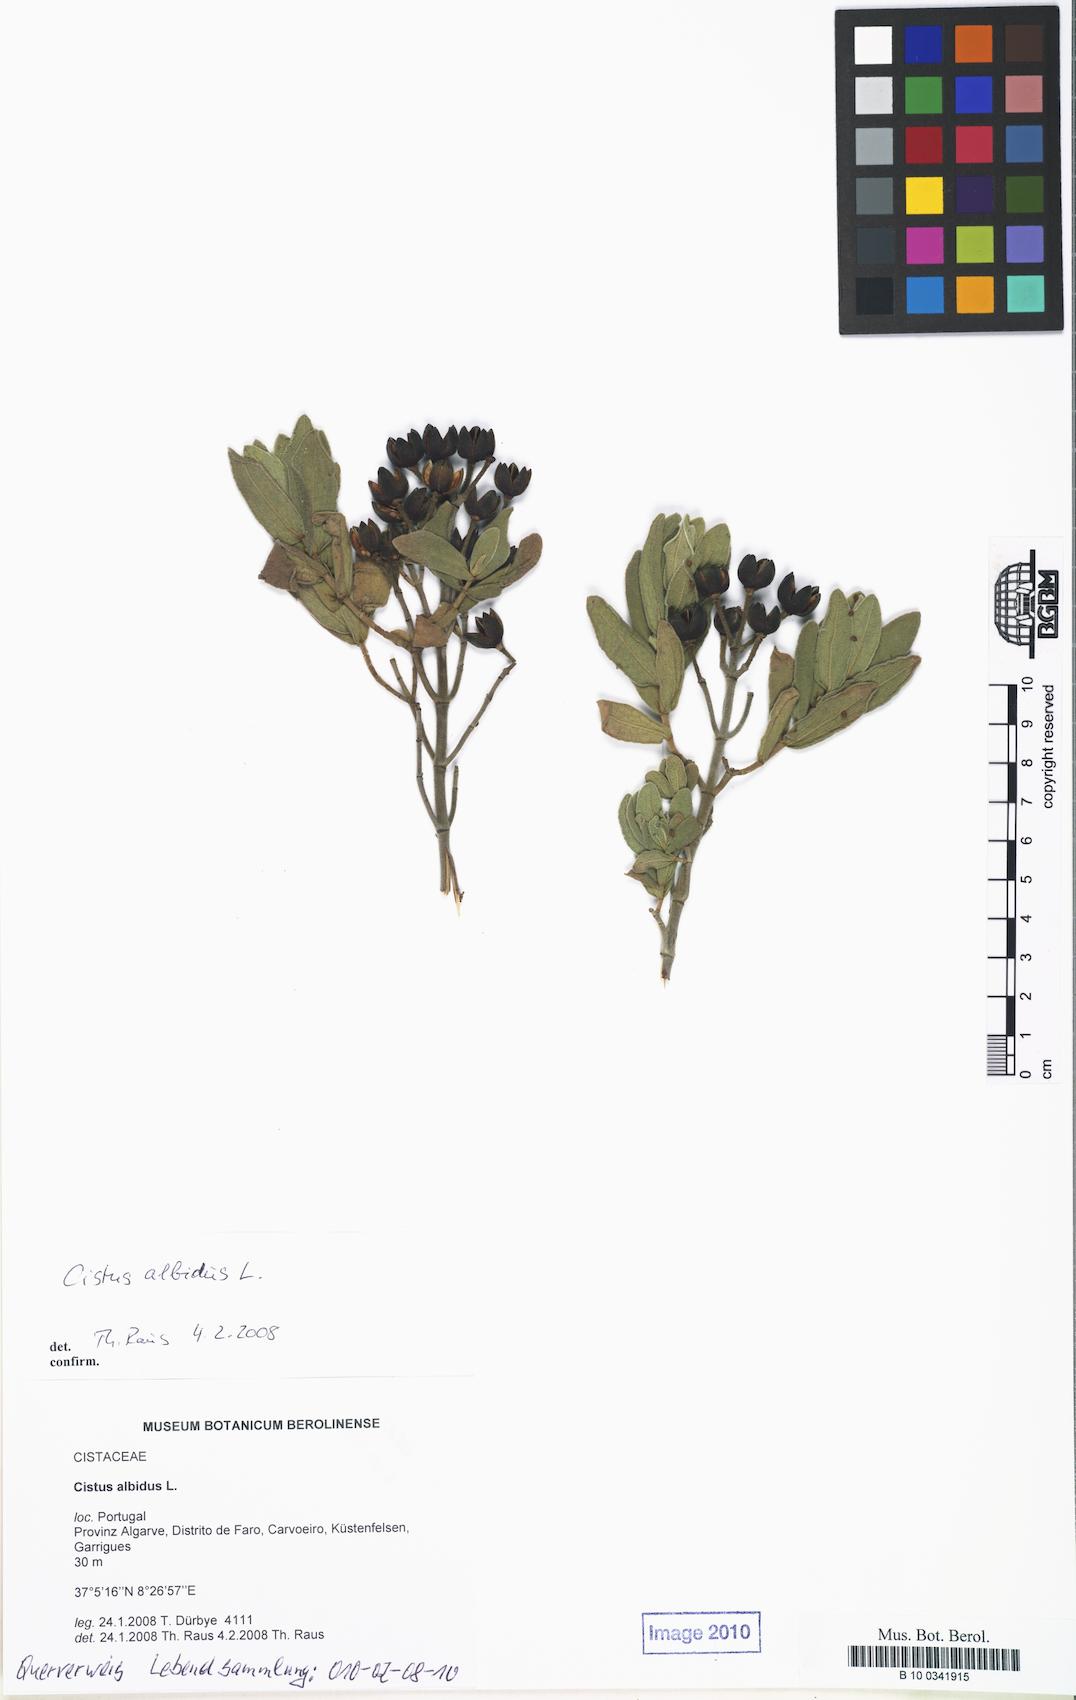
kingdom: Plantae
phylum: Tracheophyta
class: Magnoliopsida
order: Malvales
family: Cistaceae
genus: Cistus
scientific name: Cistus albidus
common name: White-leaf rock-rose
